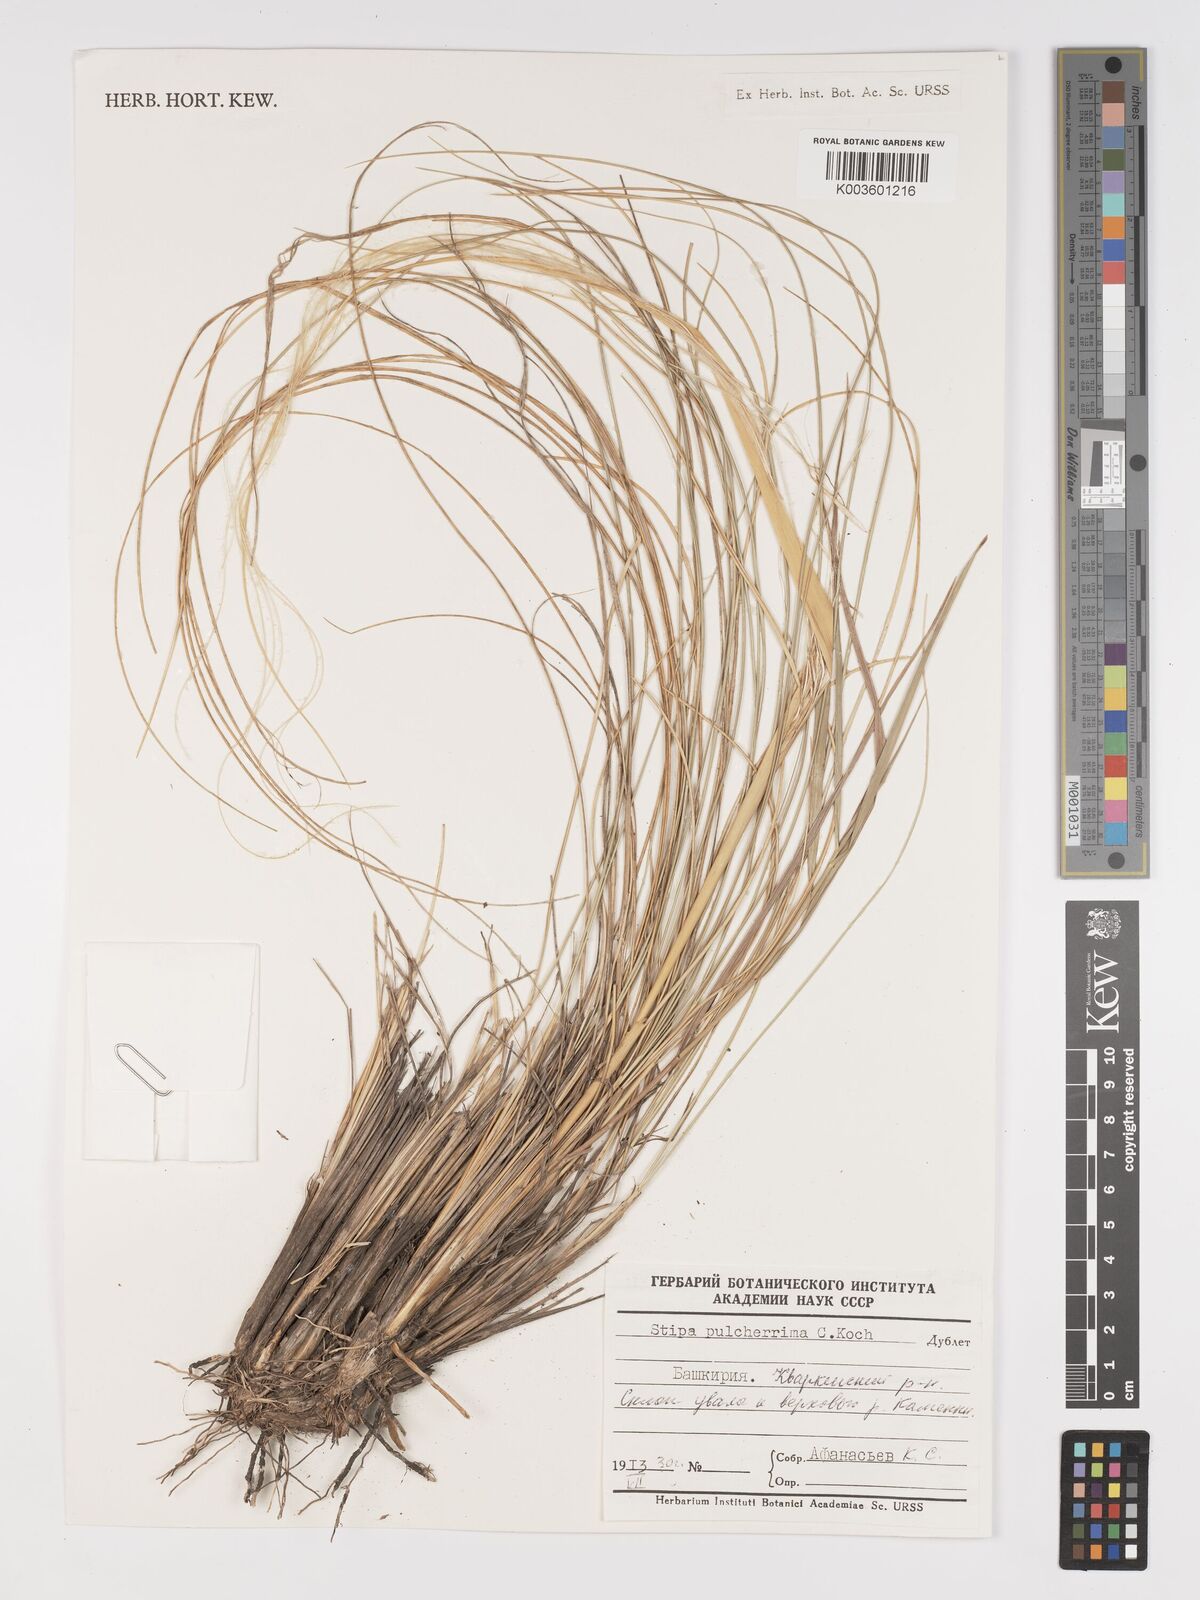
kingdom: Plantae
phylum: Tracheophyta
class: Liliopsida
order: Poales
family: Poaceae
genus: Stipa
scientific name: Stipa pulcherrima
